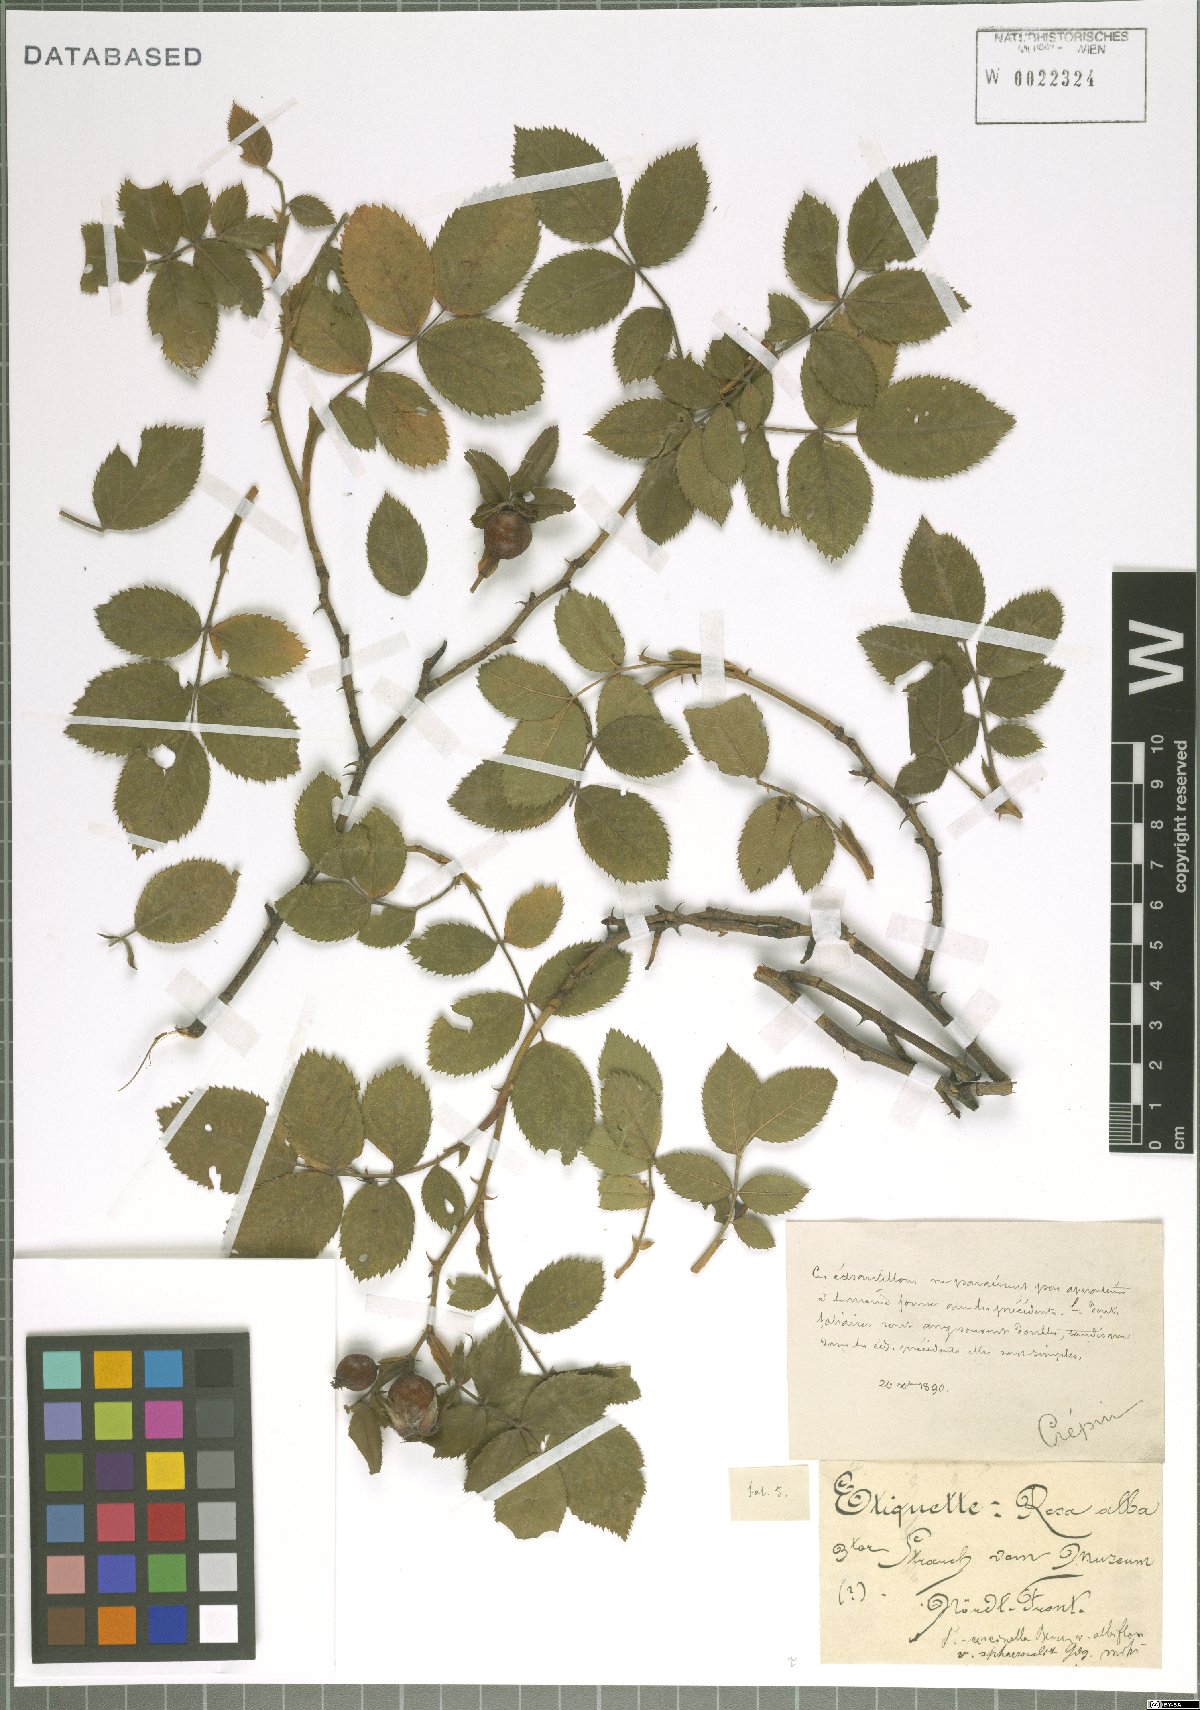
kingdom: Plantae
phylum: Tracheophyta
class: Magnoliopsida
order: Rosales
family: Rosaceae
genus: Rosa
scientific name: Rosa
